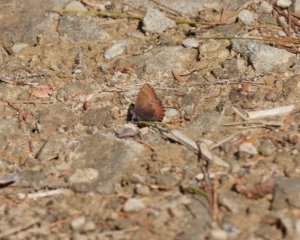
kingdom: Animalia
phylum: Arthropoda
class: Insecta
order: Lepidoptera
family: Lycaenidae
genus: Incisalia
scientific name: Incisalia irioides
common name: Brown Elfin
